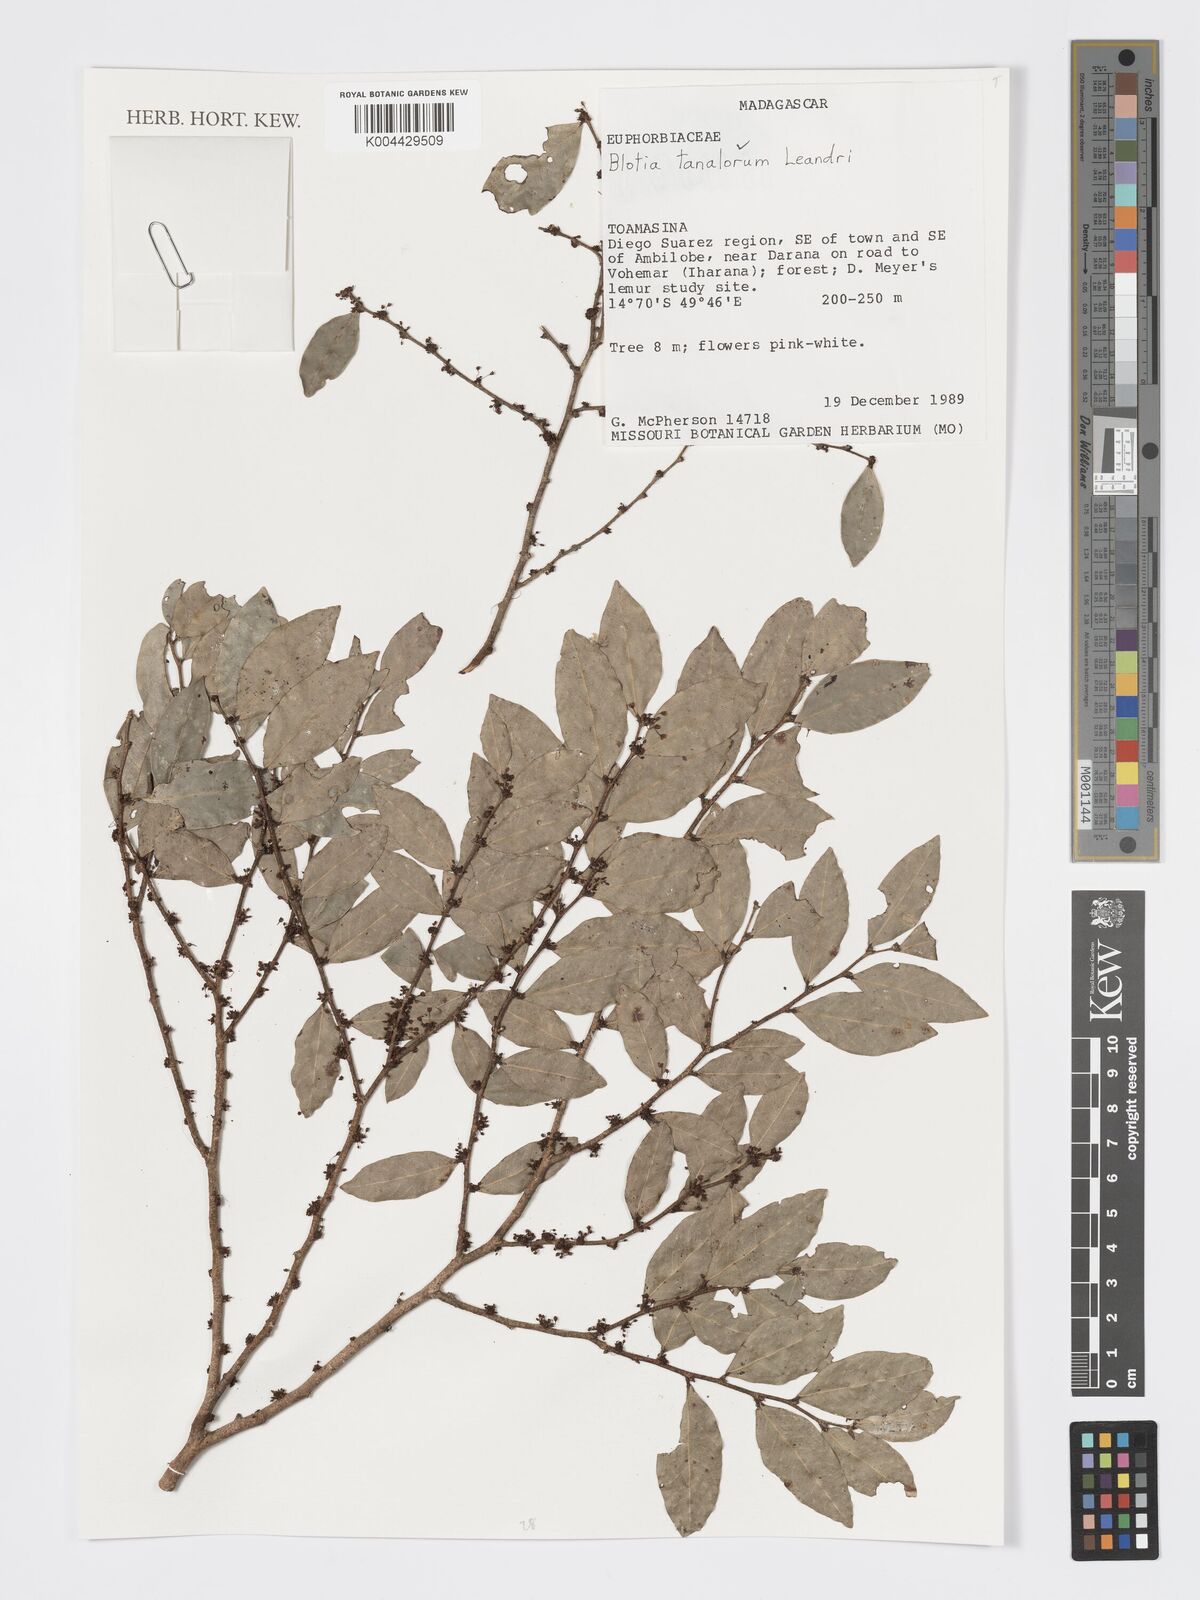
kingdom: Plantae
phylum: Tracheophyta
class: Magnoliopsida
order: Malpighiales
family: Phyllanthaceae
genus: Wielandia
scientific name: Wielandia tanalorum
